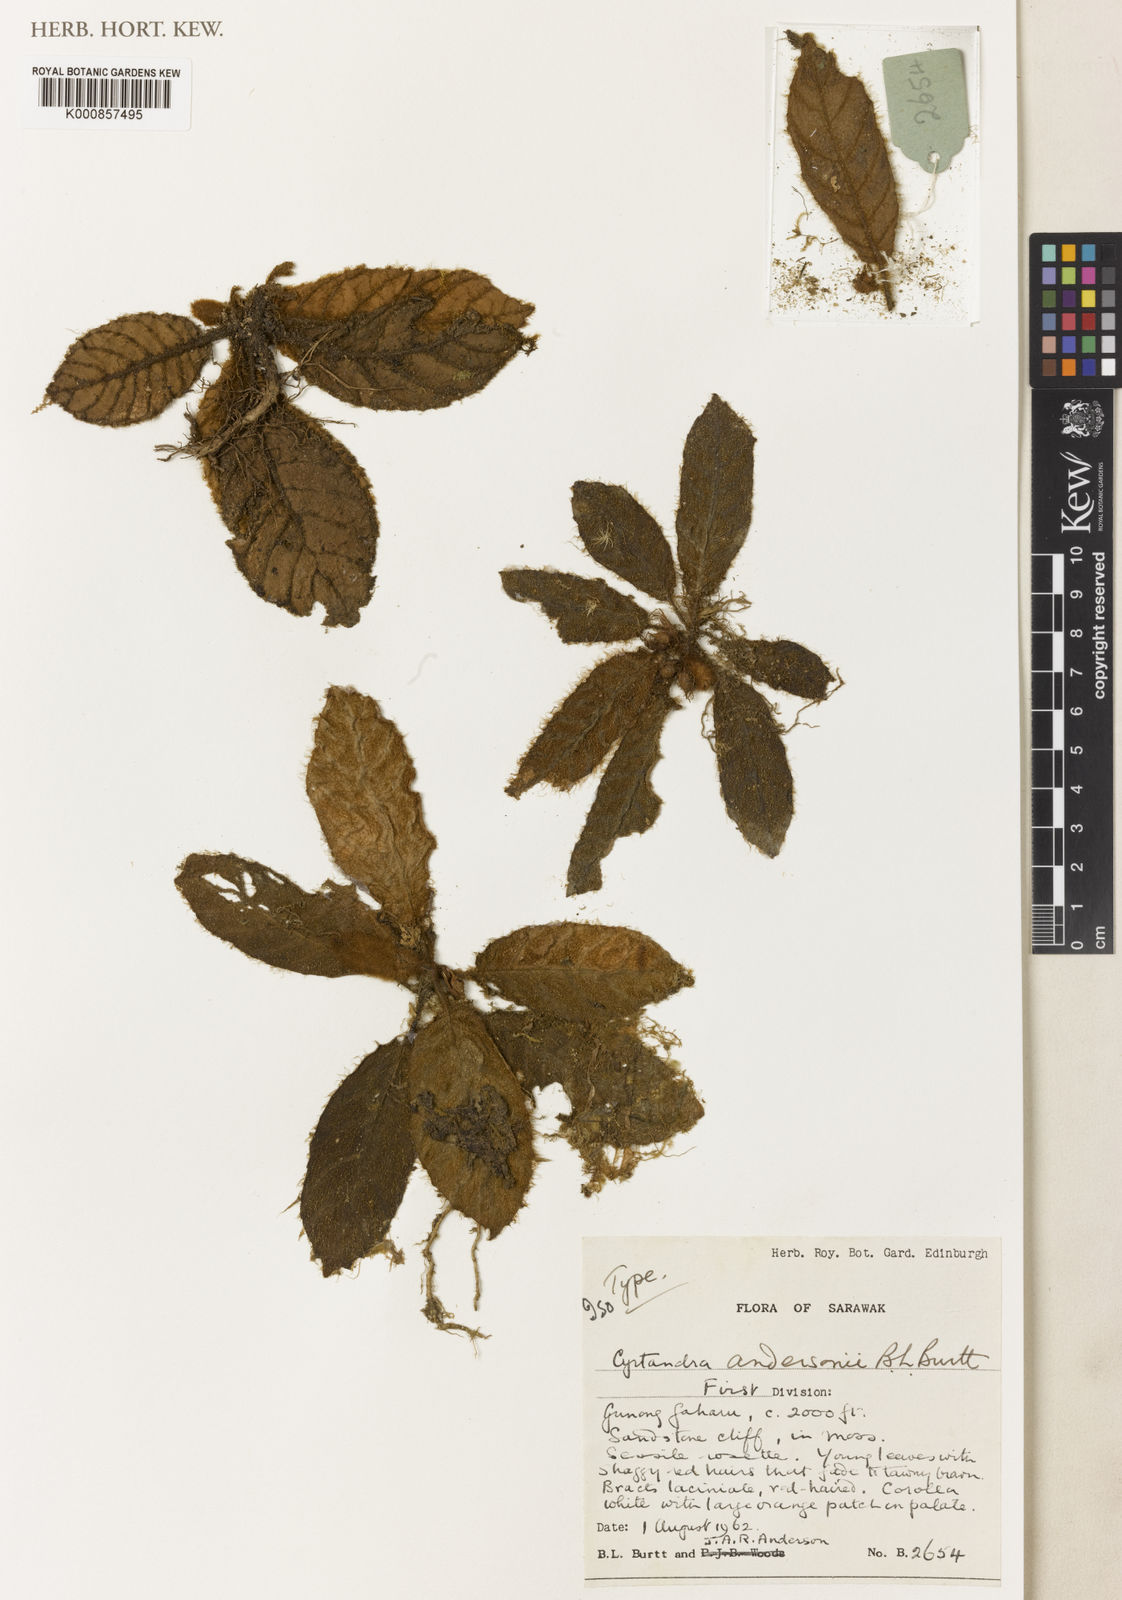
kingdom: Plantae
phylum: Tracheophyta
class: Magnoliopsida
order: Lamiales
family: Gesneriaceae
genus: Cyrtandra
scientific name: Cyrtandra andersonii
